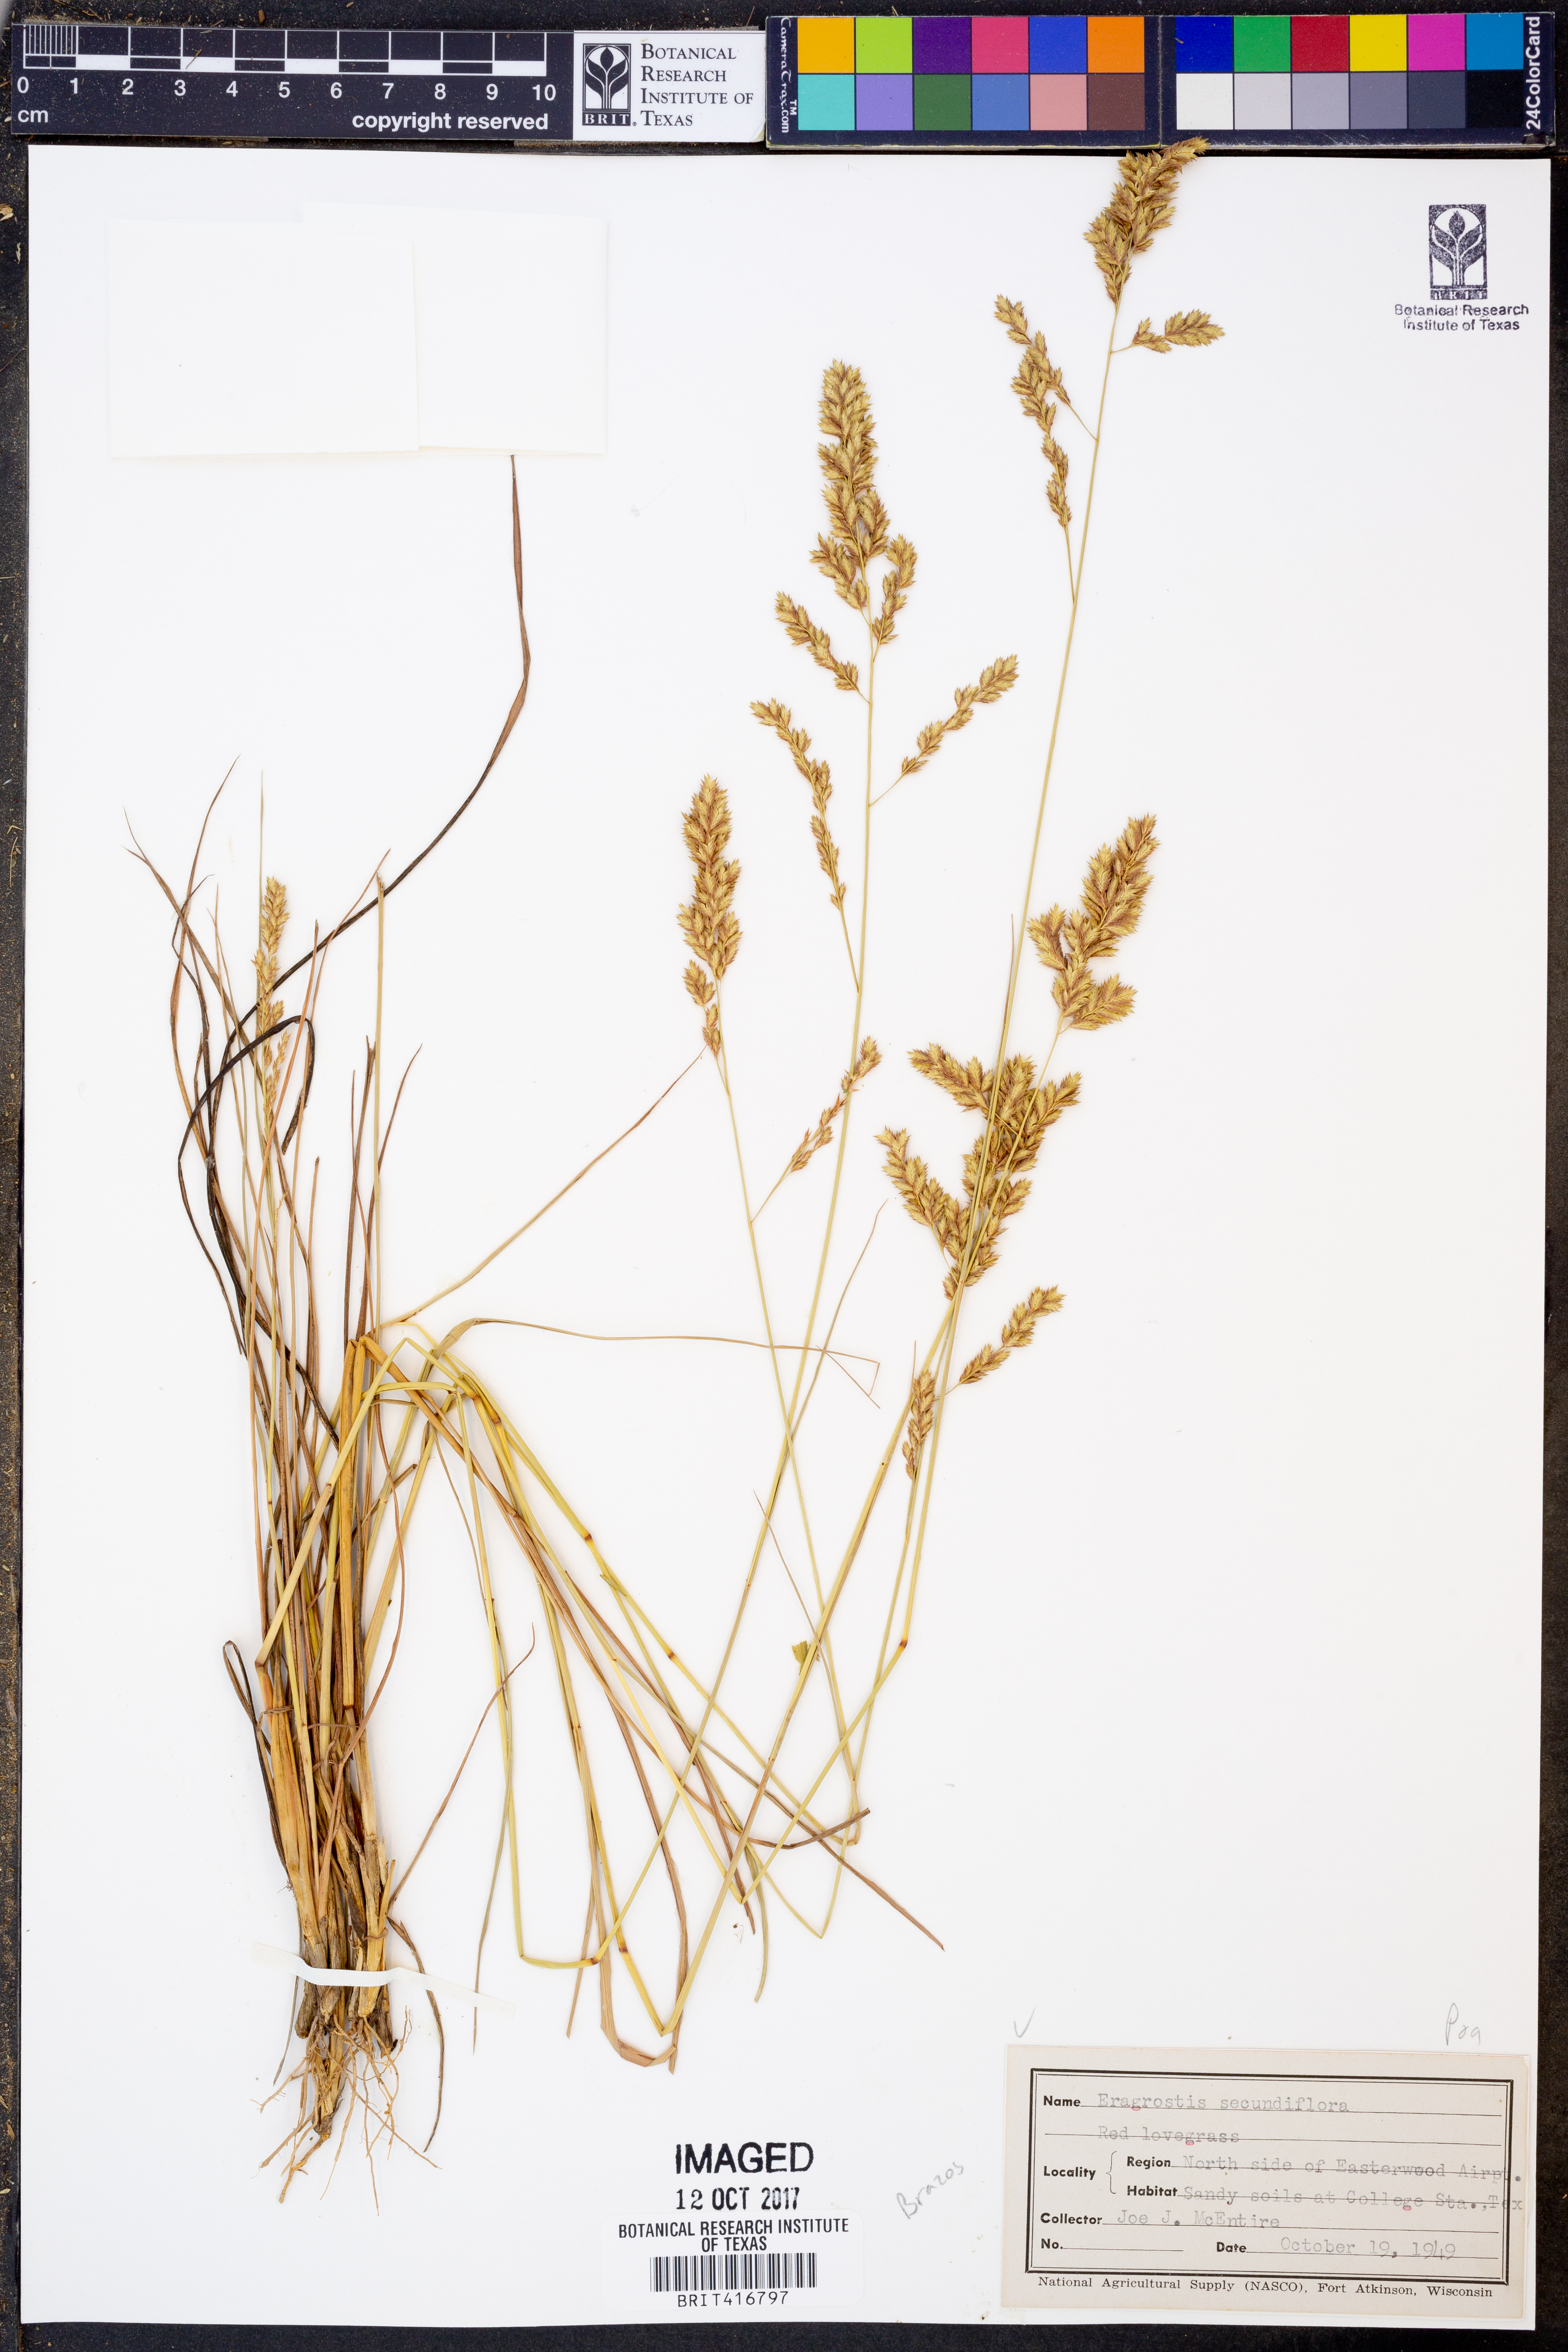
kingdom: Plantae
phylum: Tracheophyta
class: Liliopsida
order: Poales
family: Poaceae
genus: Eragrostis
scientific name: Eragrostis secundiflora
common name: Red love grass
